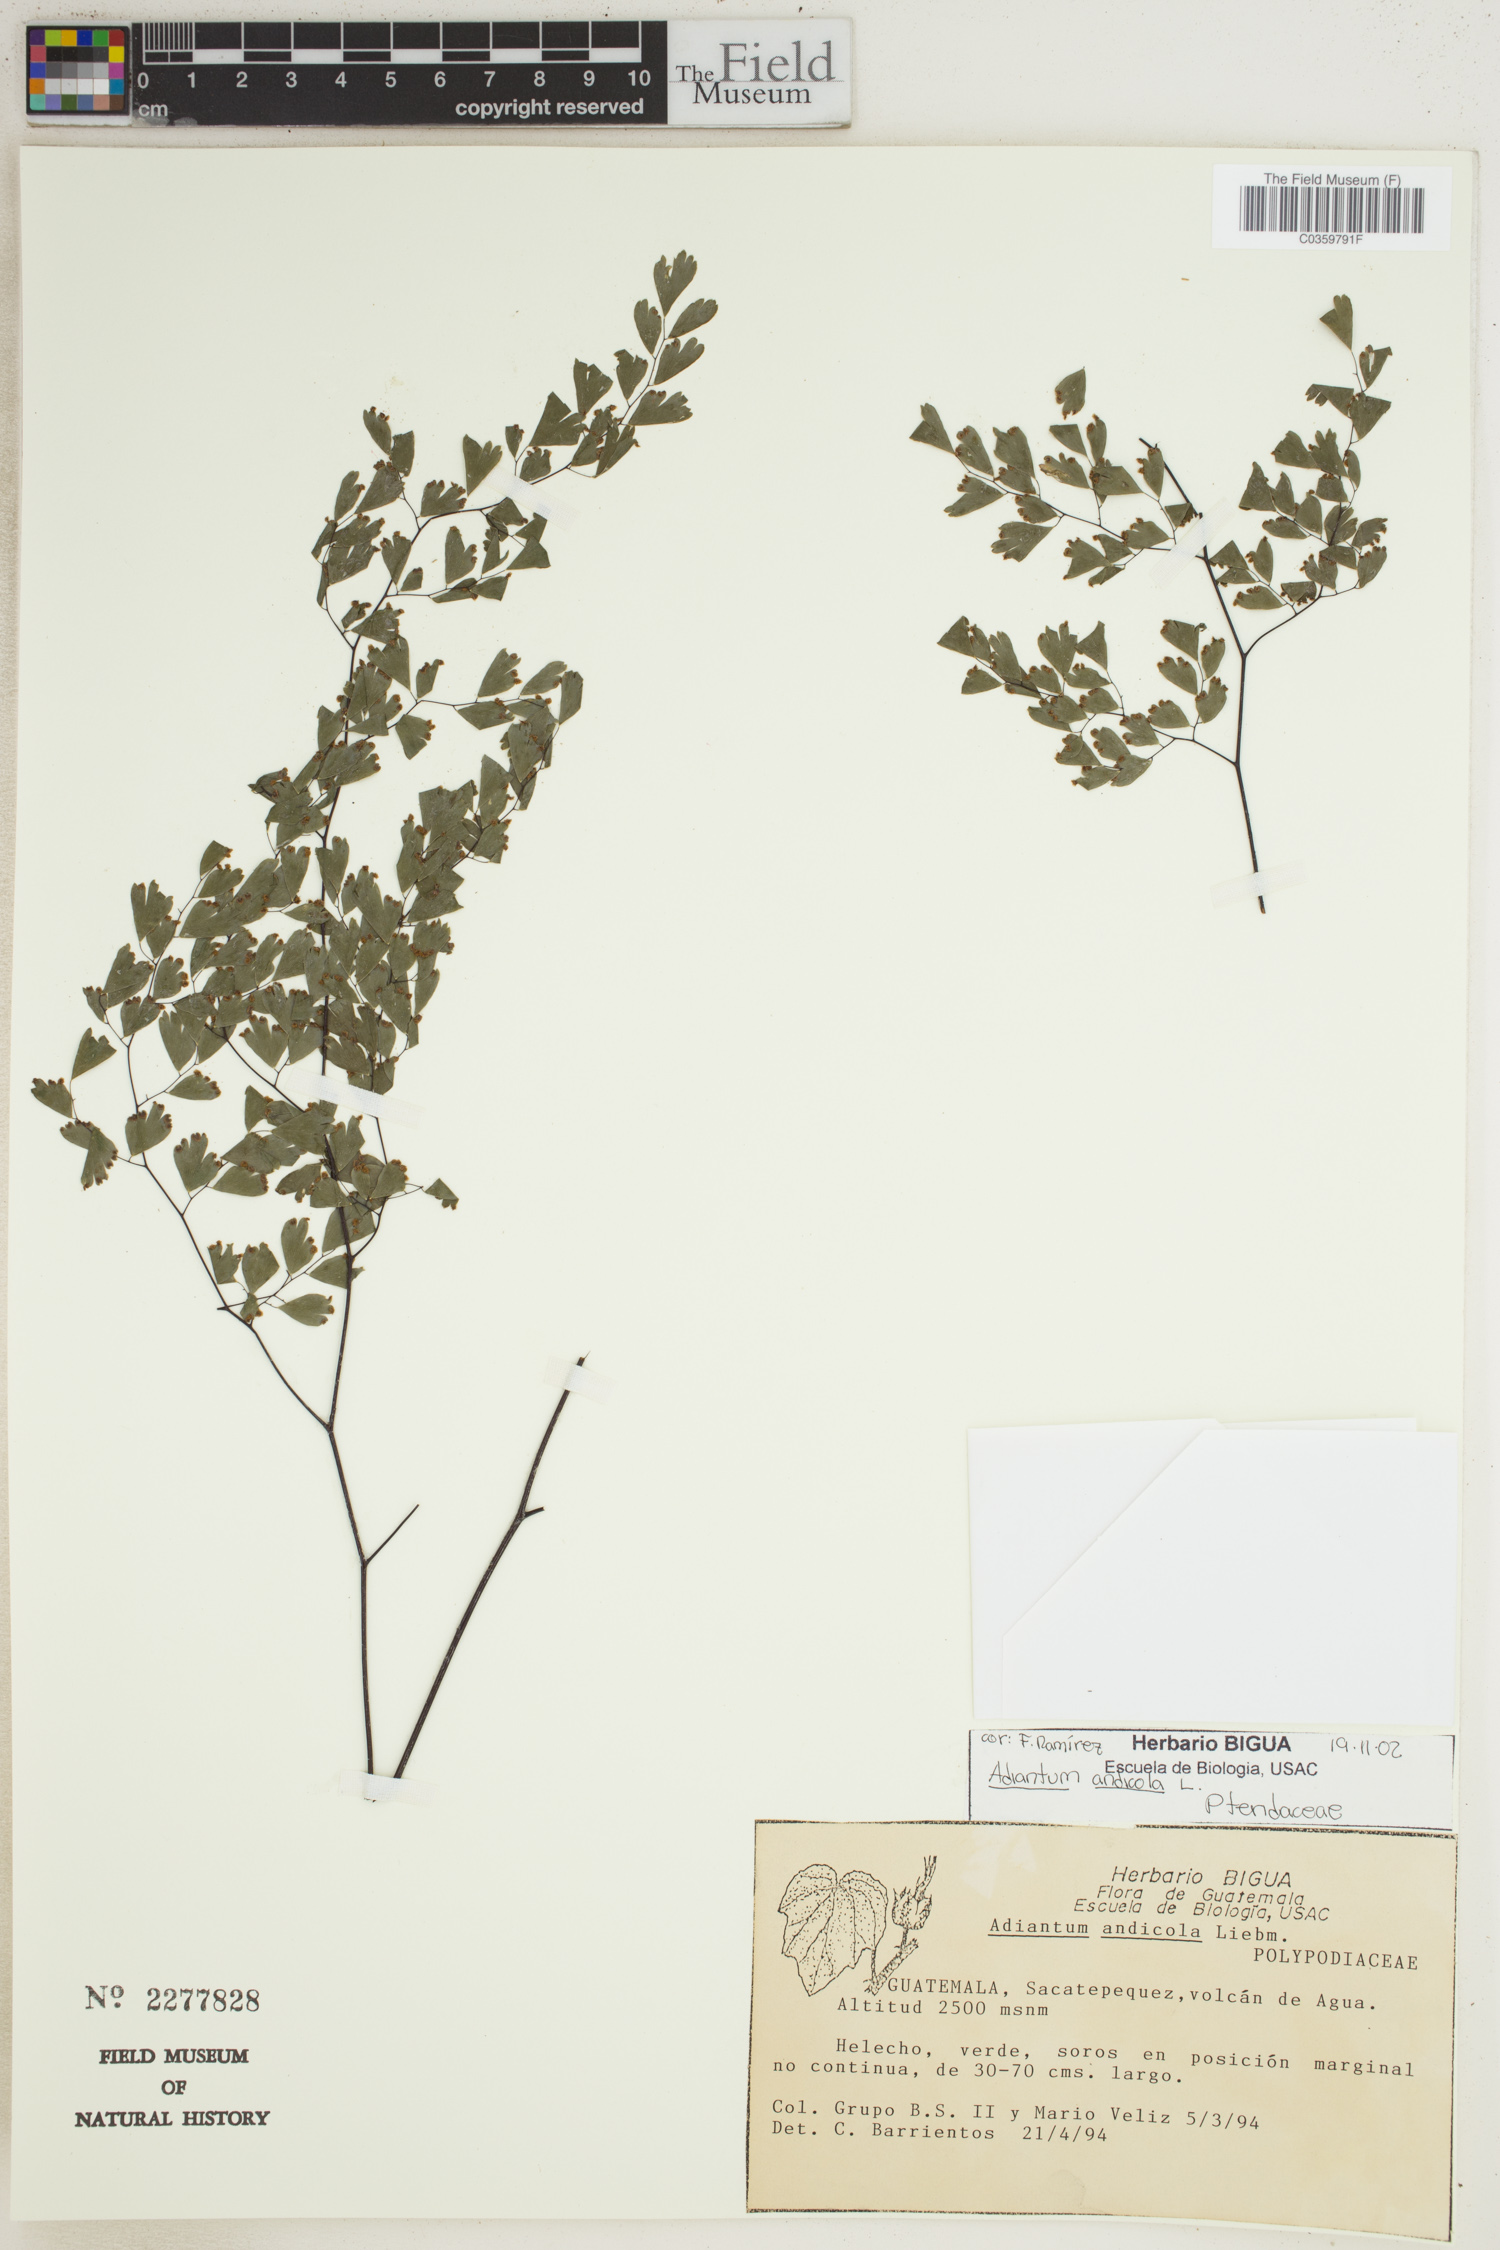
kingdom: Plantae
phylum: Tracheophyta
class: Polypodiopsida
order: Polypodiales
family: Pteridaceae
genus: Adiantum
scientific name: Adiantum andicola
